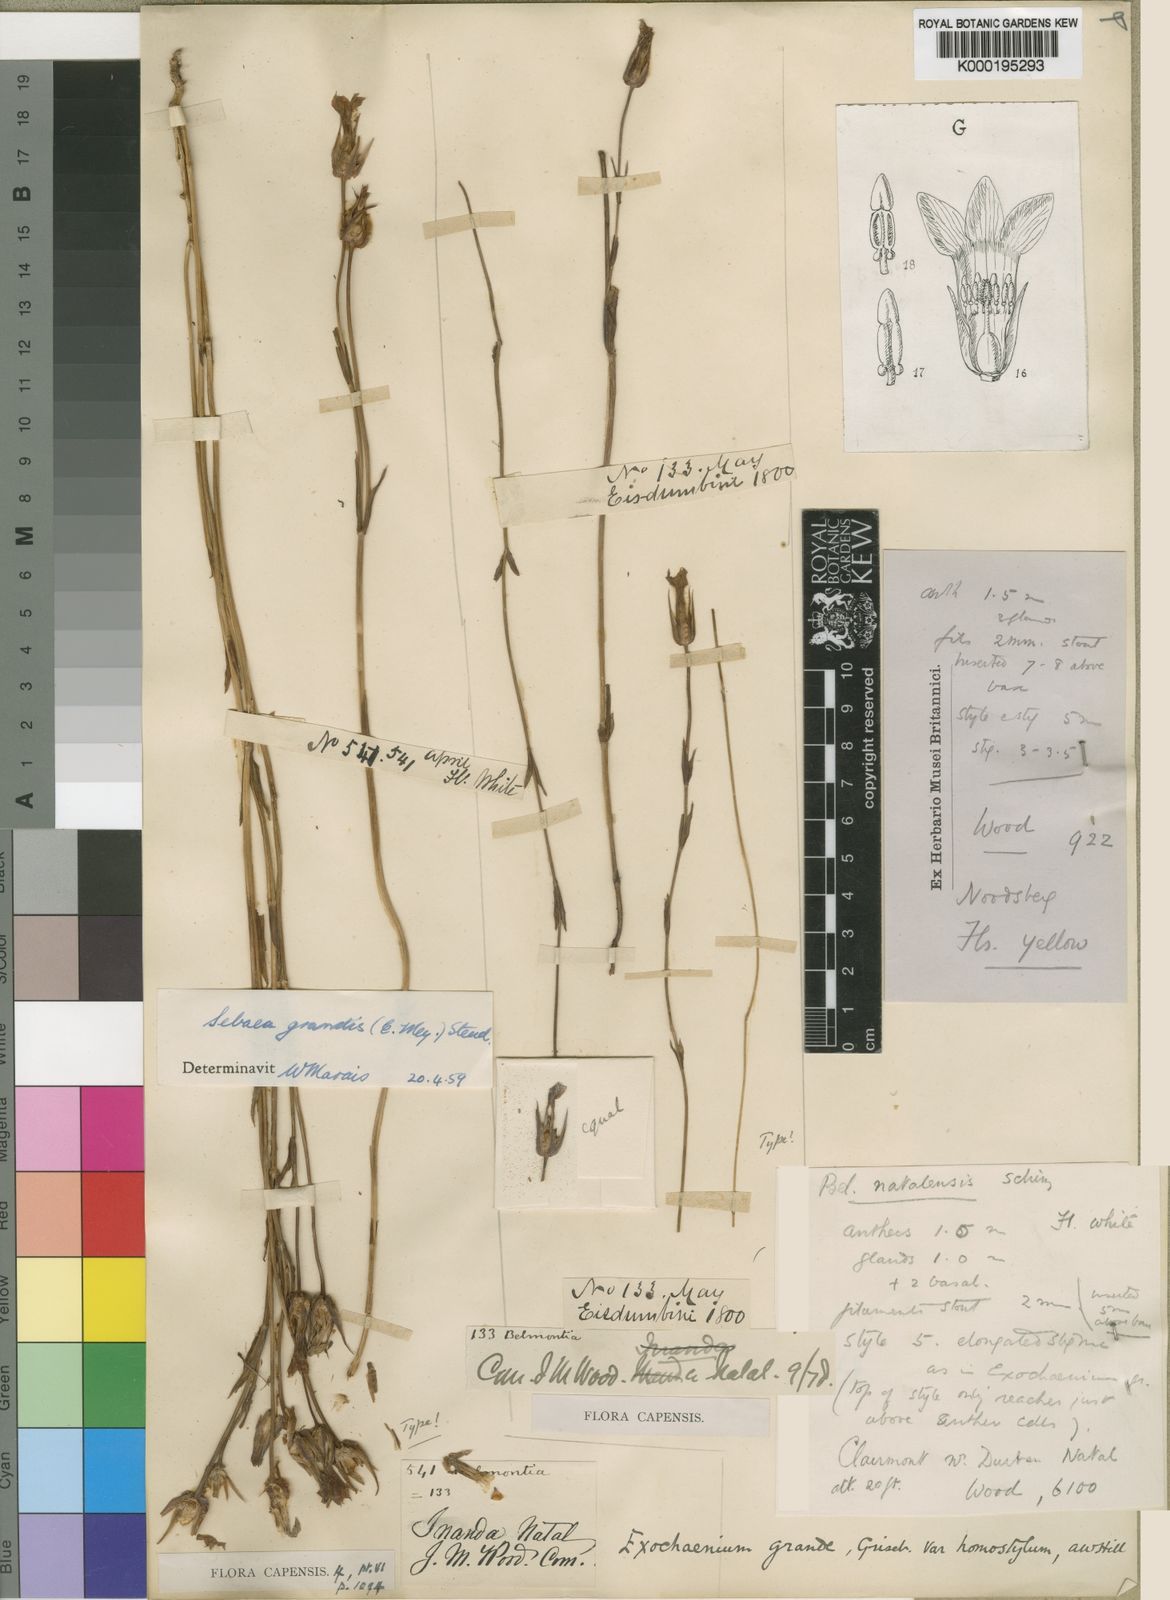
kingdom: Plantae
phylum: Tracheophyta
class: Magnoliopsida
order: Gentianales
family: Gentianaceae
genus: Exochaenium
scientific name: Exochaenium grande
